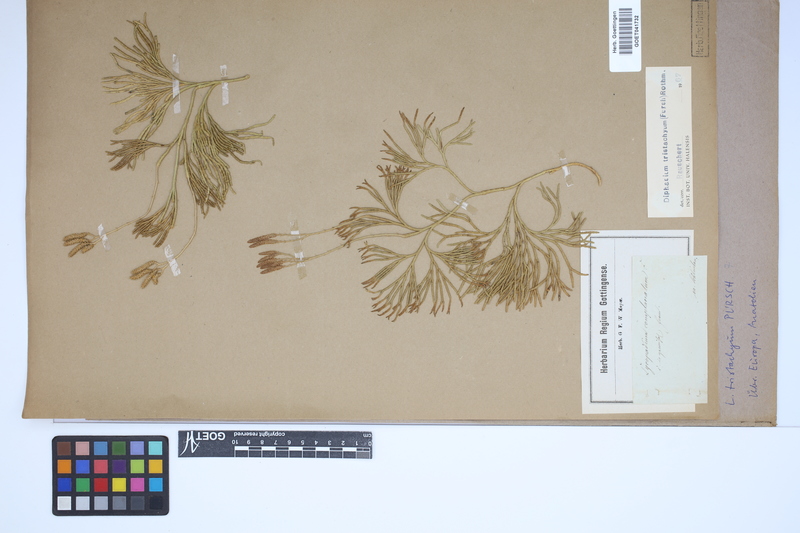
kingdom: Plantae
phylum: Tracheophyta
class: Lycopodiopsida
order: Lycopodiales
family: Lycopodiaceae
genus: Diphasiastrum
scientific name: Diphasiastrum tristachyum
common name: Blue ground-cedar
